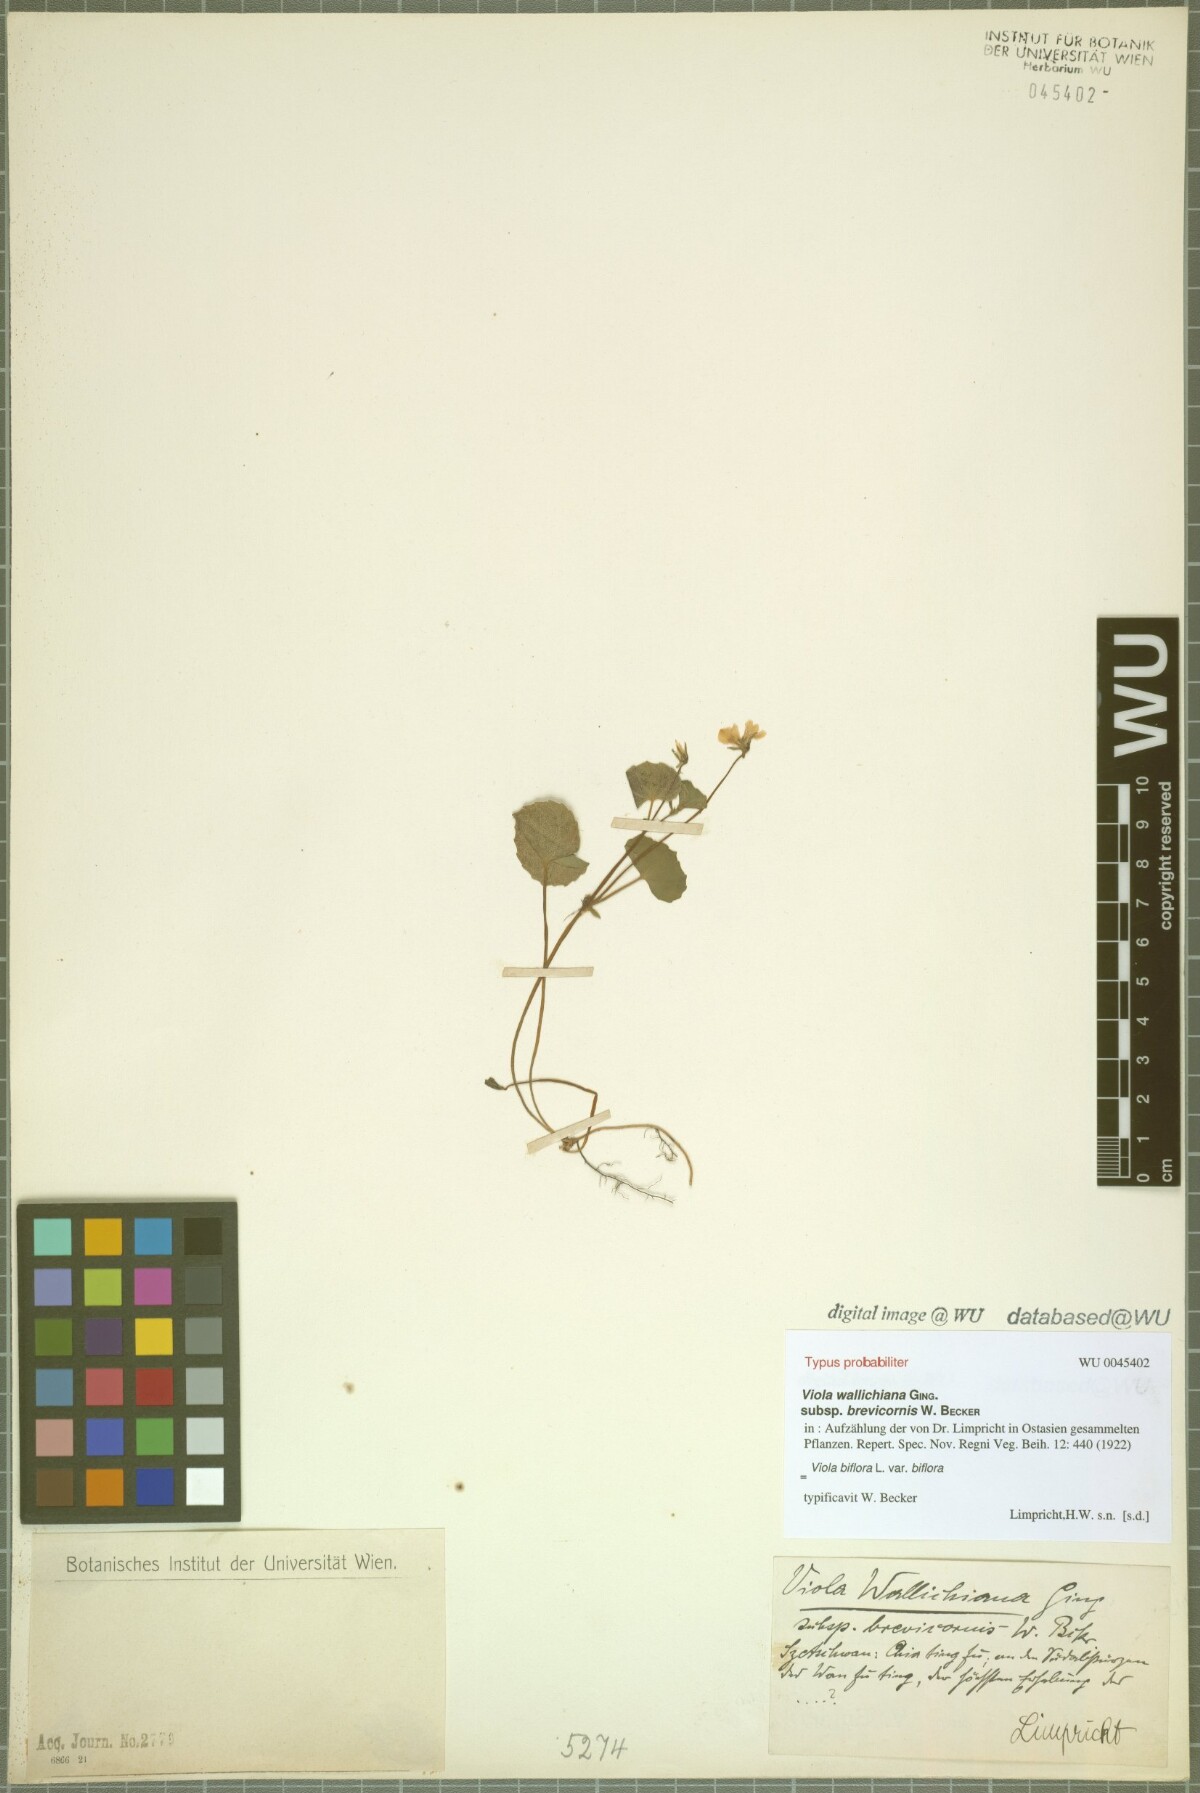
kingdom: Plantae
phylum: Tracheophyta
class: Magnoliopsida
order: Malpighiales
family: Violaceae
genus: Viola
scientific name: Viola biflora
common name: Alpine yellow violet
